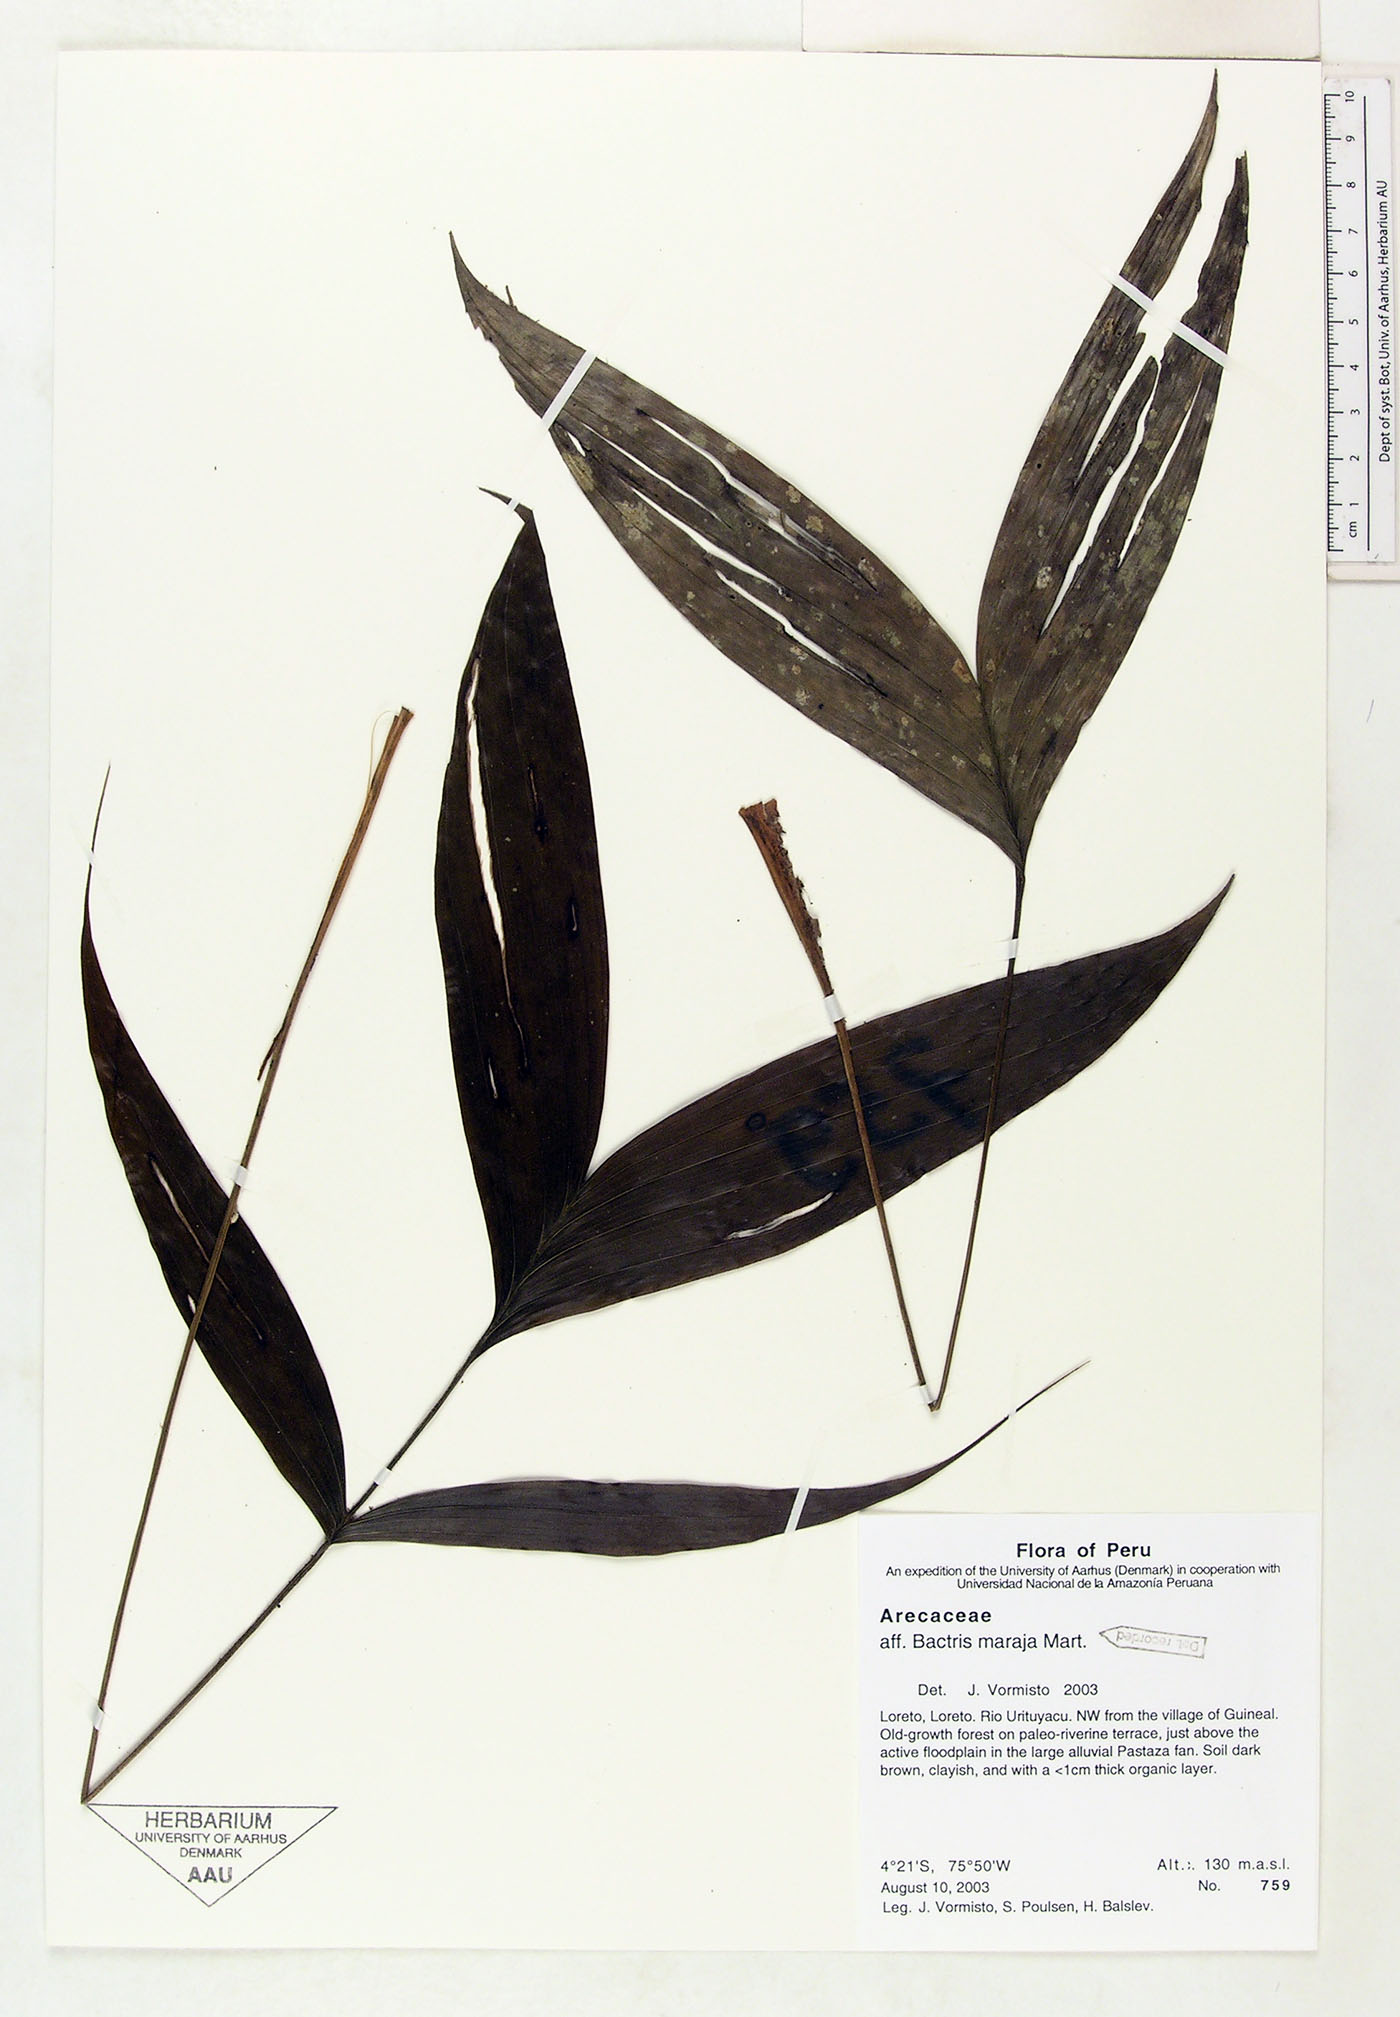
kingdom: Plantae
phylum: Tracheophyta
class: Liliopsida
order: Arecales
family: Arecaceae
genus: Bactris
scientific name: Bactris maraja
